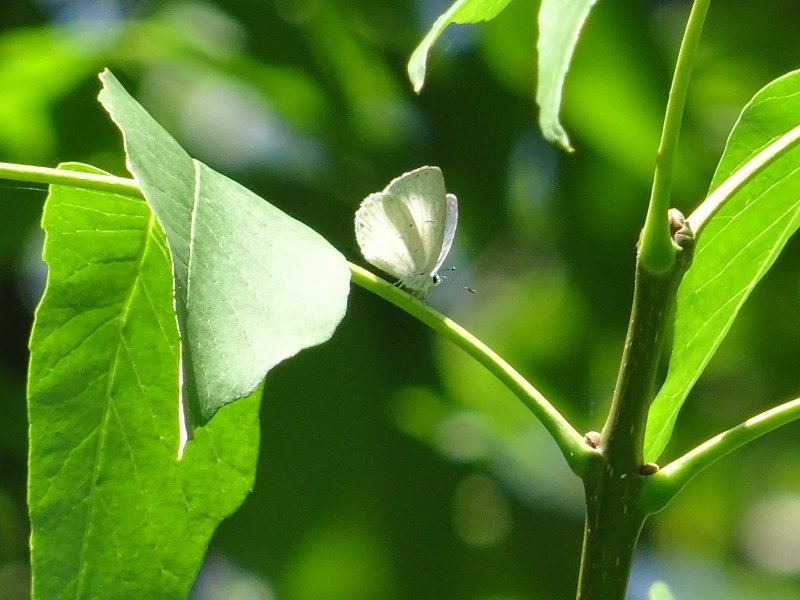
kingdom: Animalia
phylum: Arthropoda
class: Insecta
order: Lepidoptera
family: Lycaenidae
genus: Celastrina
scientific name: Celastrina
